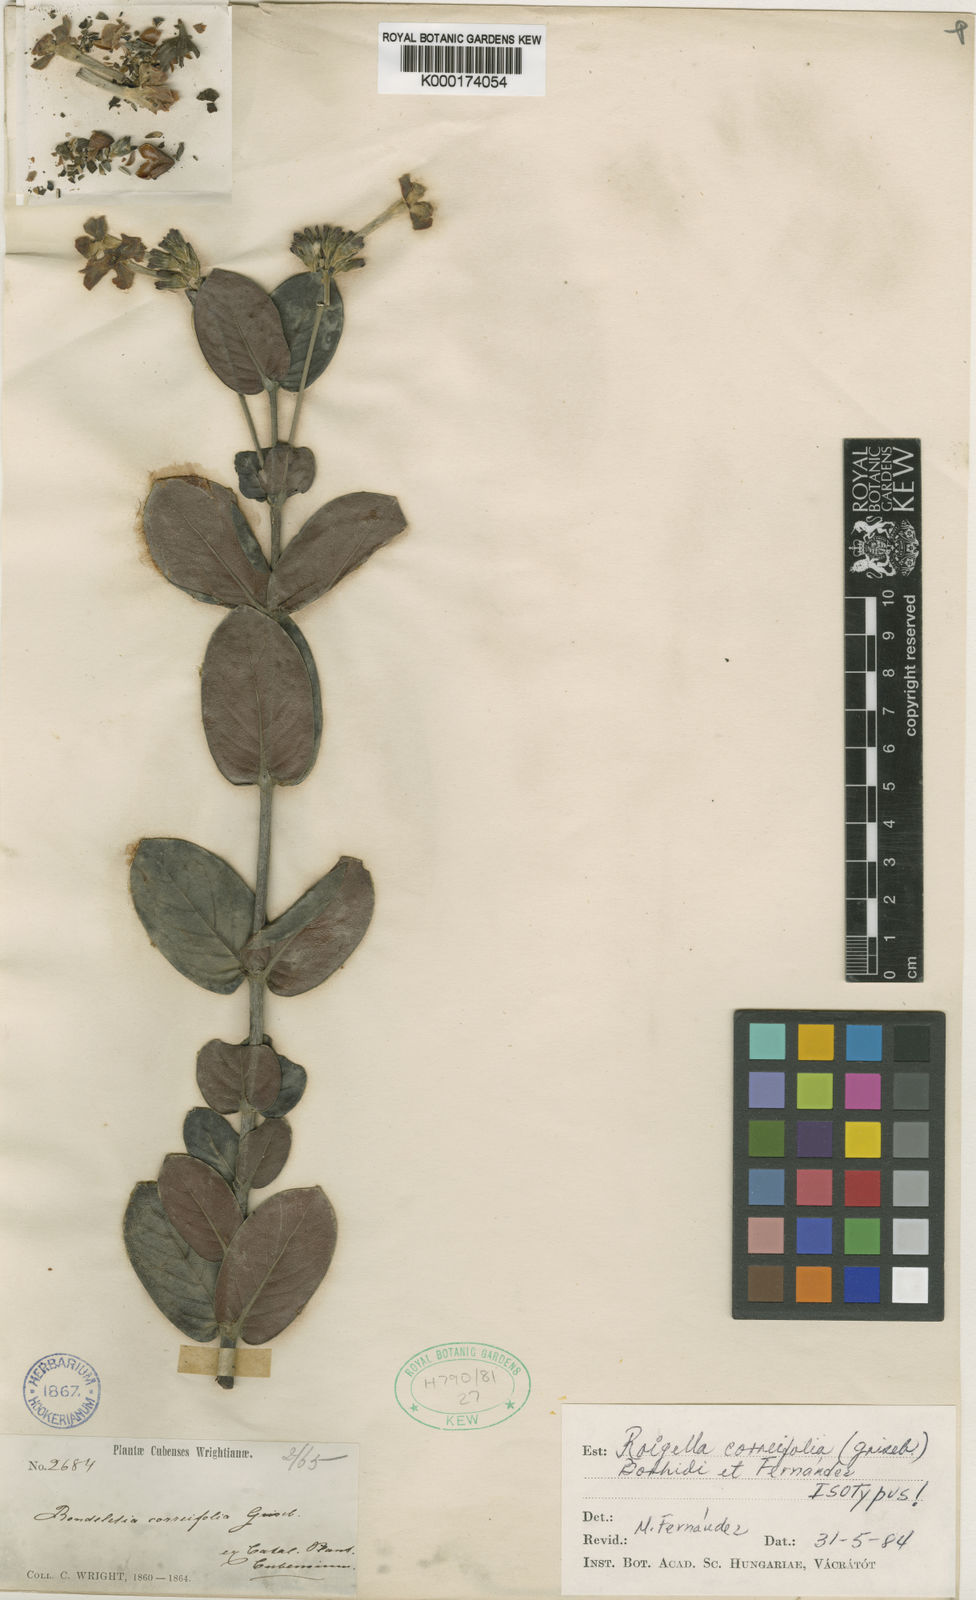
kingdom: Plantae
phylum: Tracheophyta
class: Magnoliopsida
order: Gentianales
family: Rubiaceae
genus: Roigella
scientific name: Roigella
